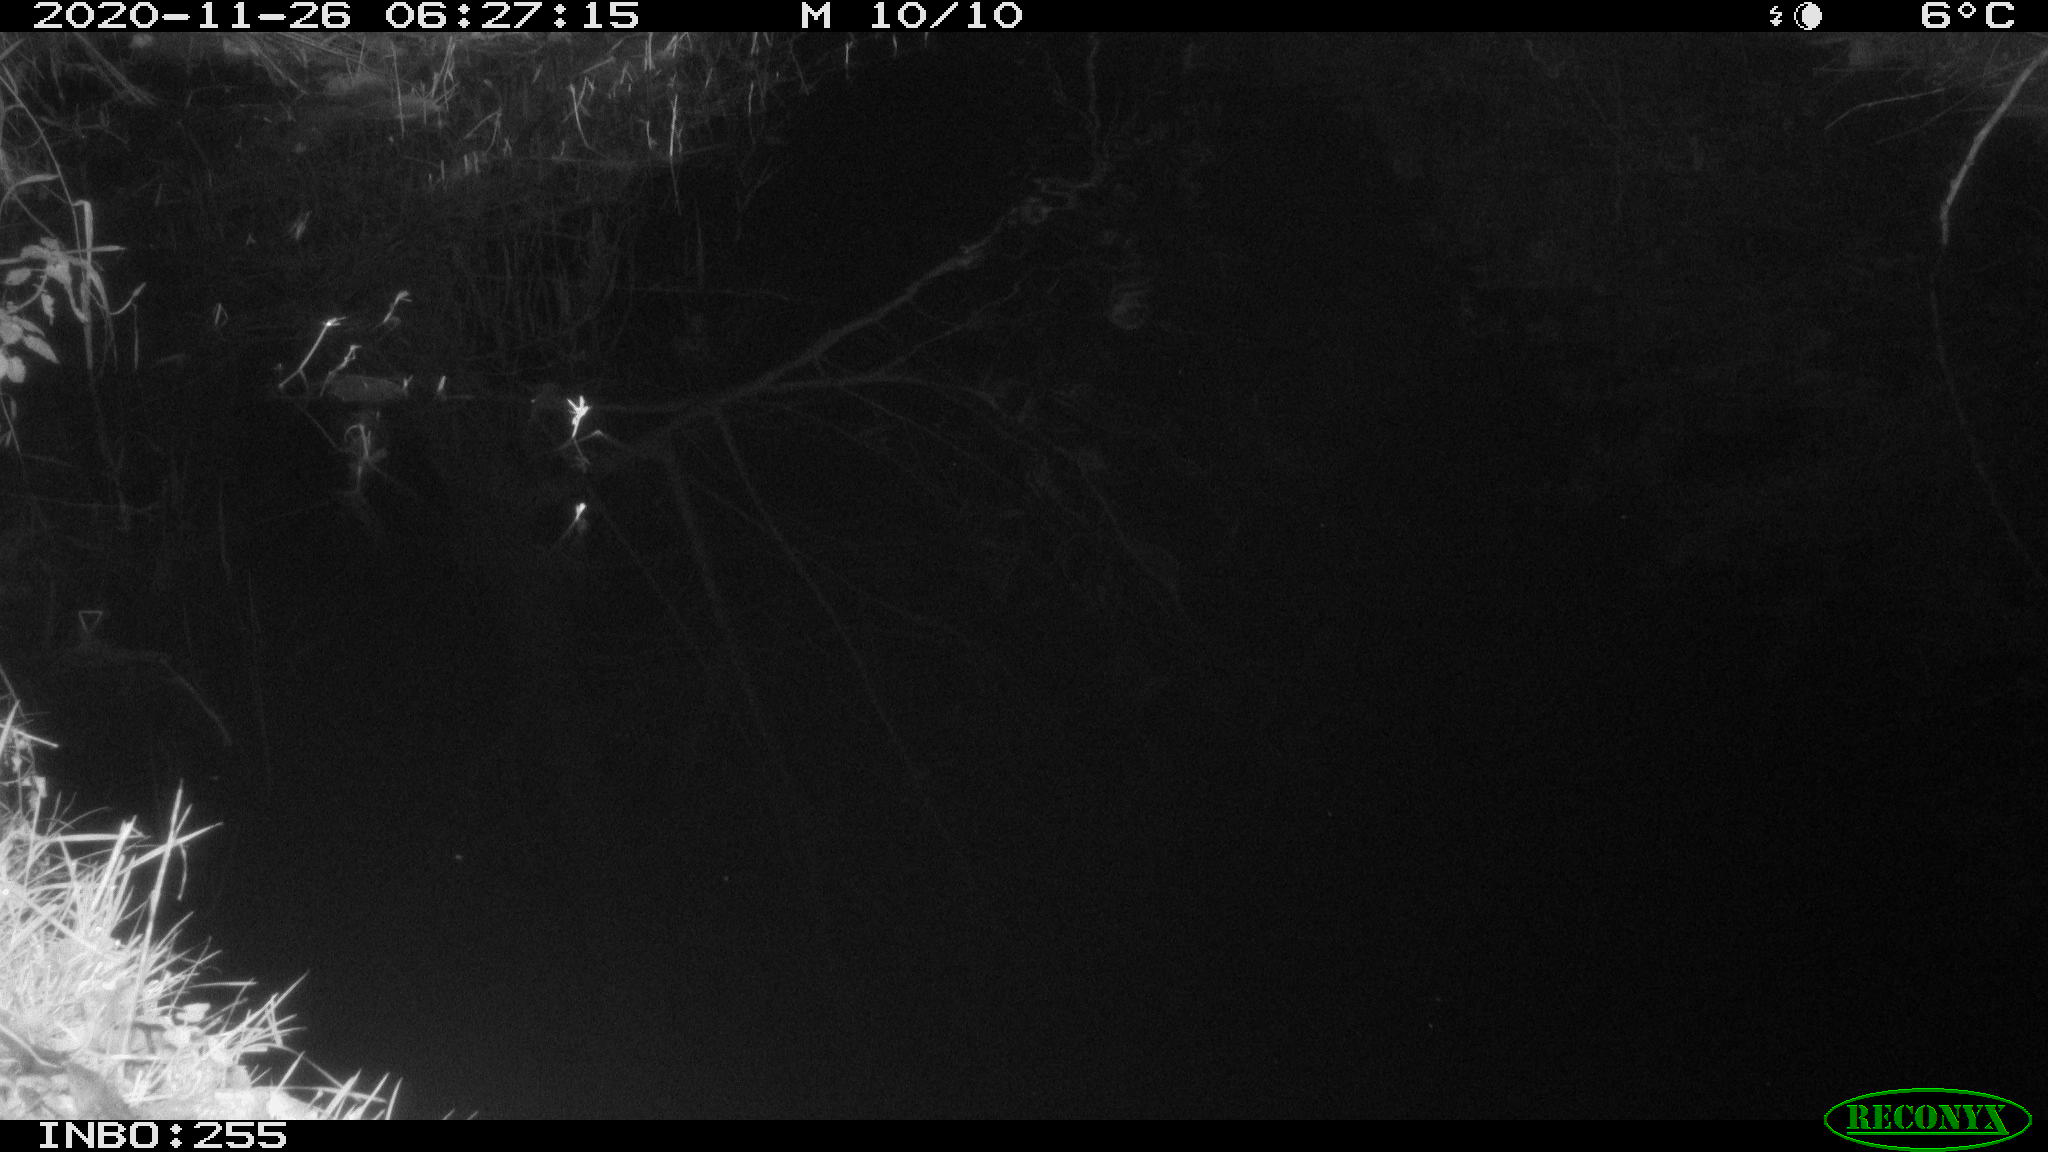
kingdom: Animalia
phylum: Chordata
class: Mammalia
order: Rodentia
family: Muridae
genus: Rattus
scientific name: Rattus norvegicus
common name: Brown rat
